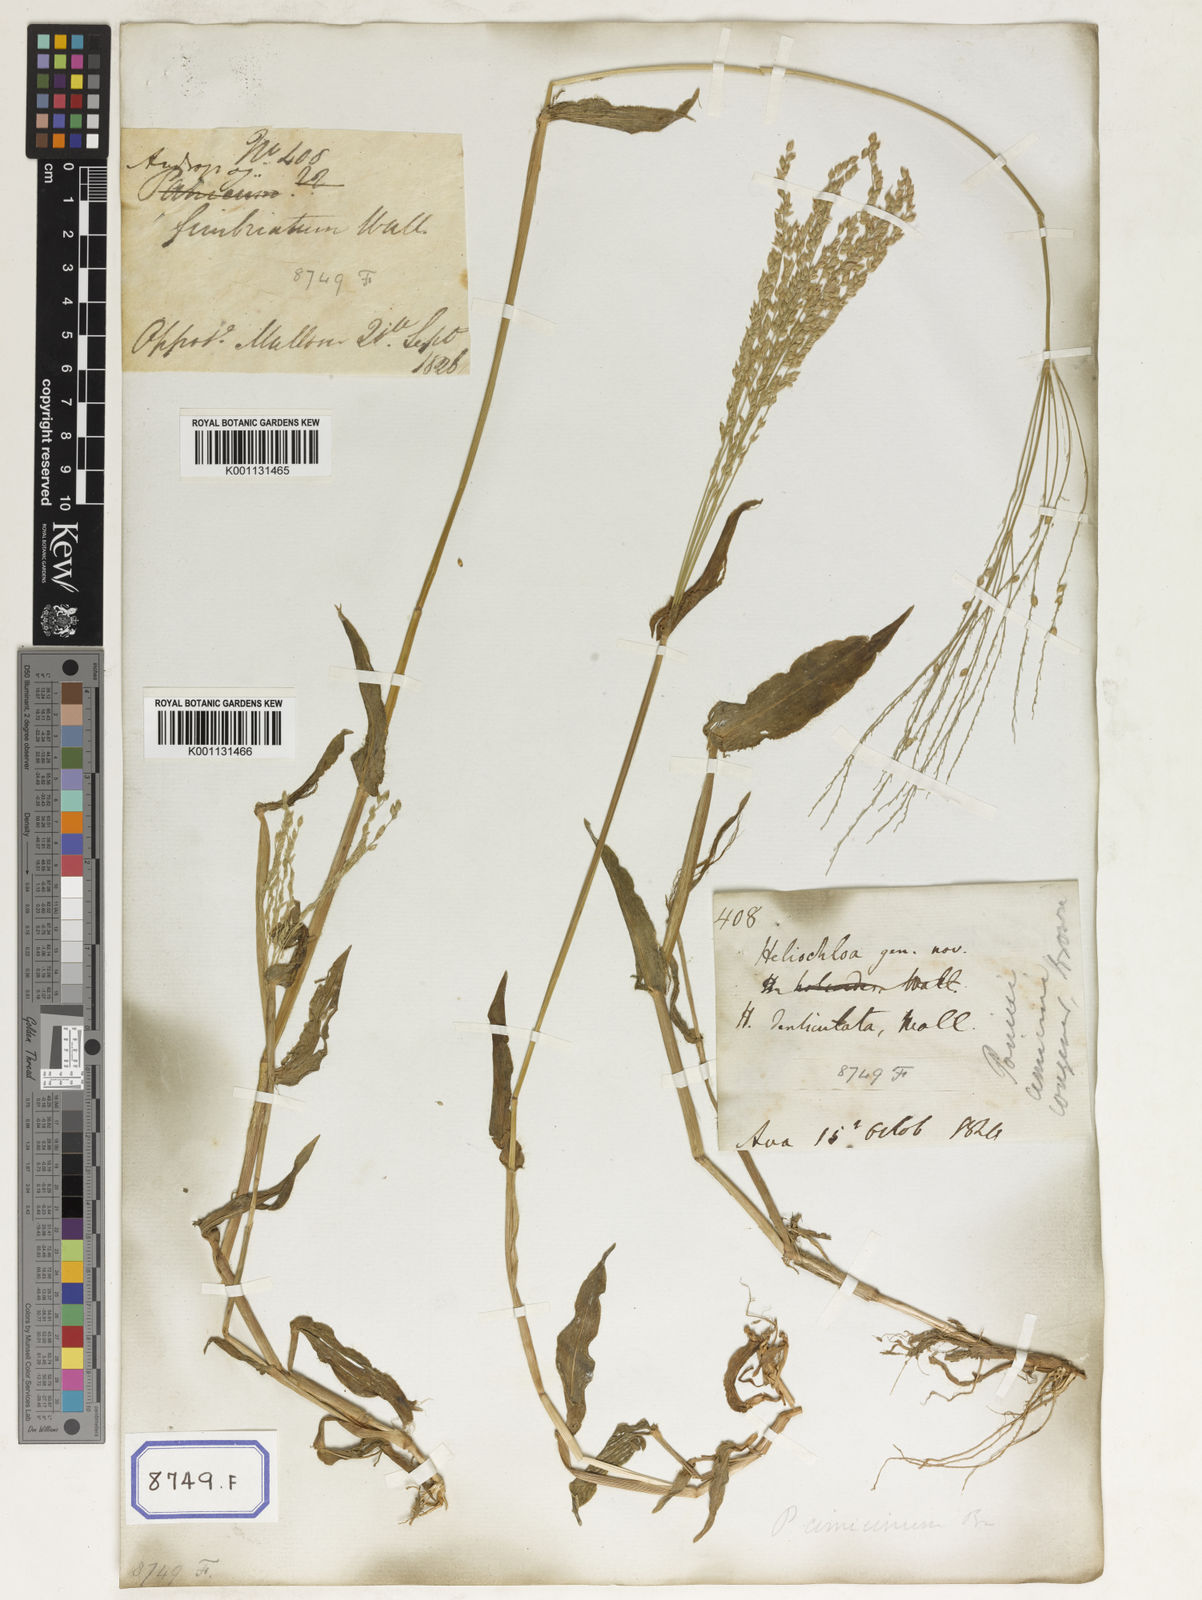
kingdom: Plantae
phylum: Tracheophyta
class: Liliopsida
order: Poales
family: Poaceae
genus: Alloteropsis
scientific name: Alloteropsis
